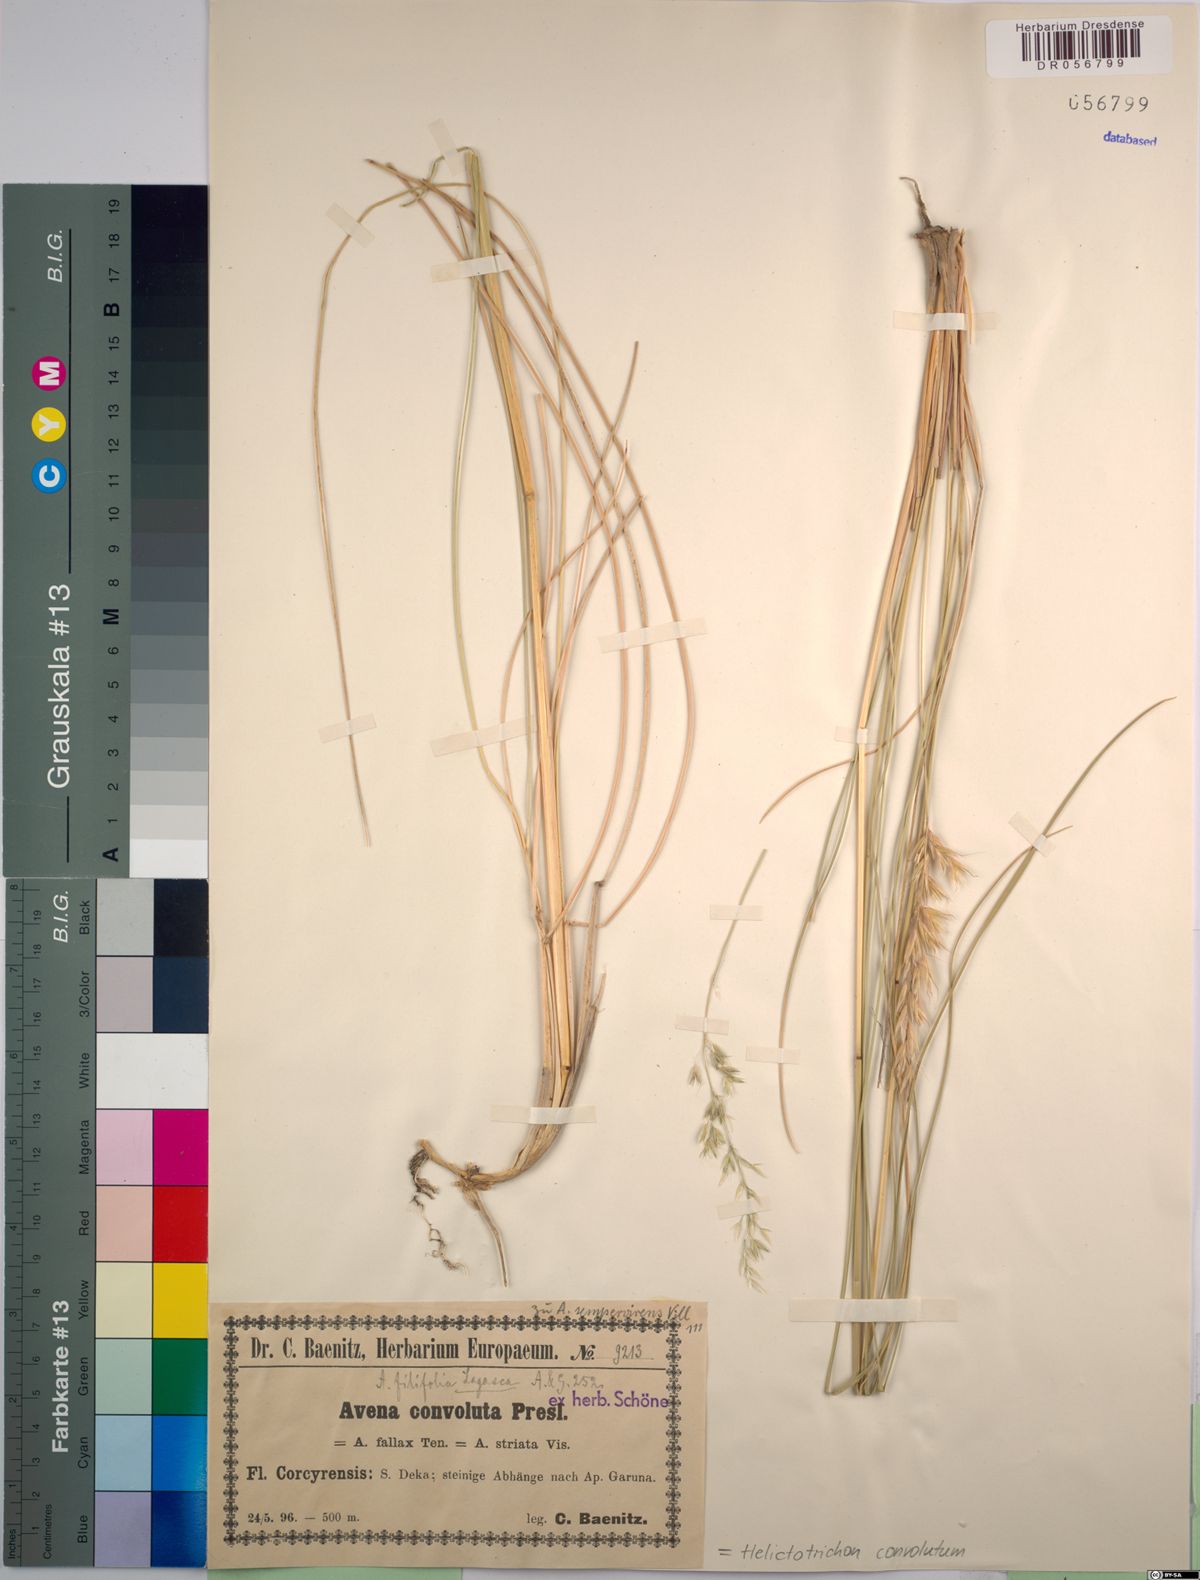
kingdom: Plantae
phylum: Tracheophyta
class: Liliopsida
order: Poales
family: Poaceae
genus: Helictotrichon
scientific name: Helictotrichon convolutum
